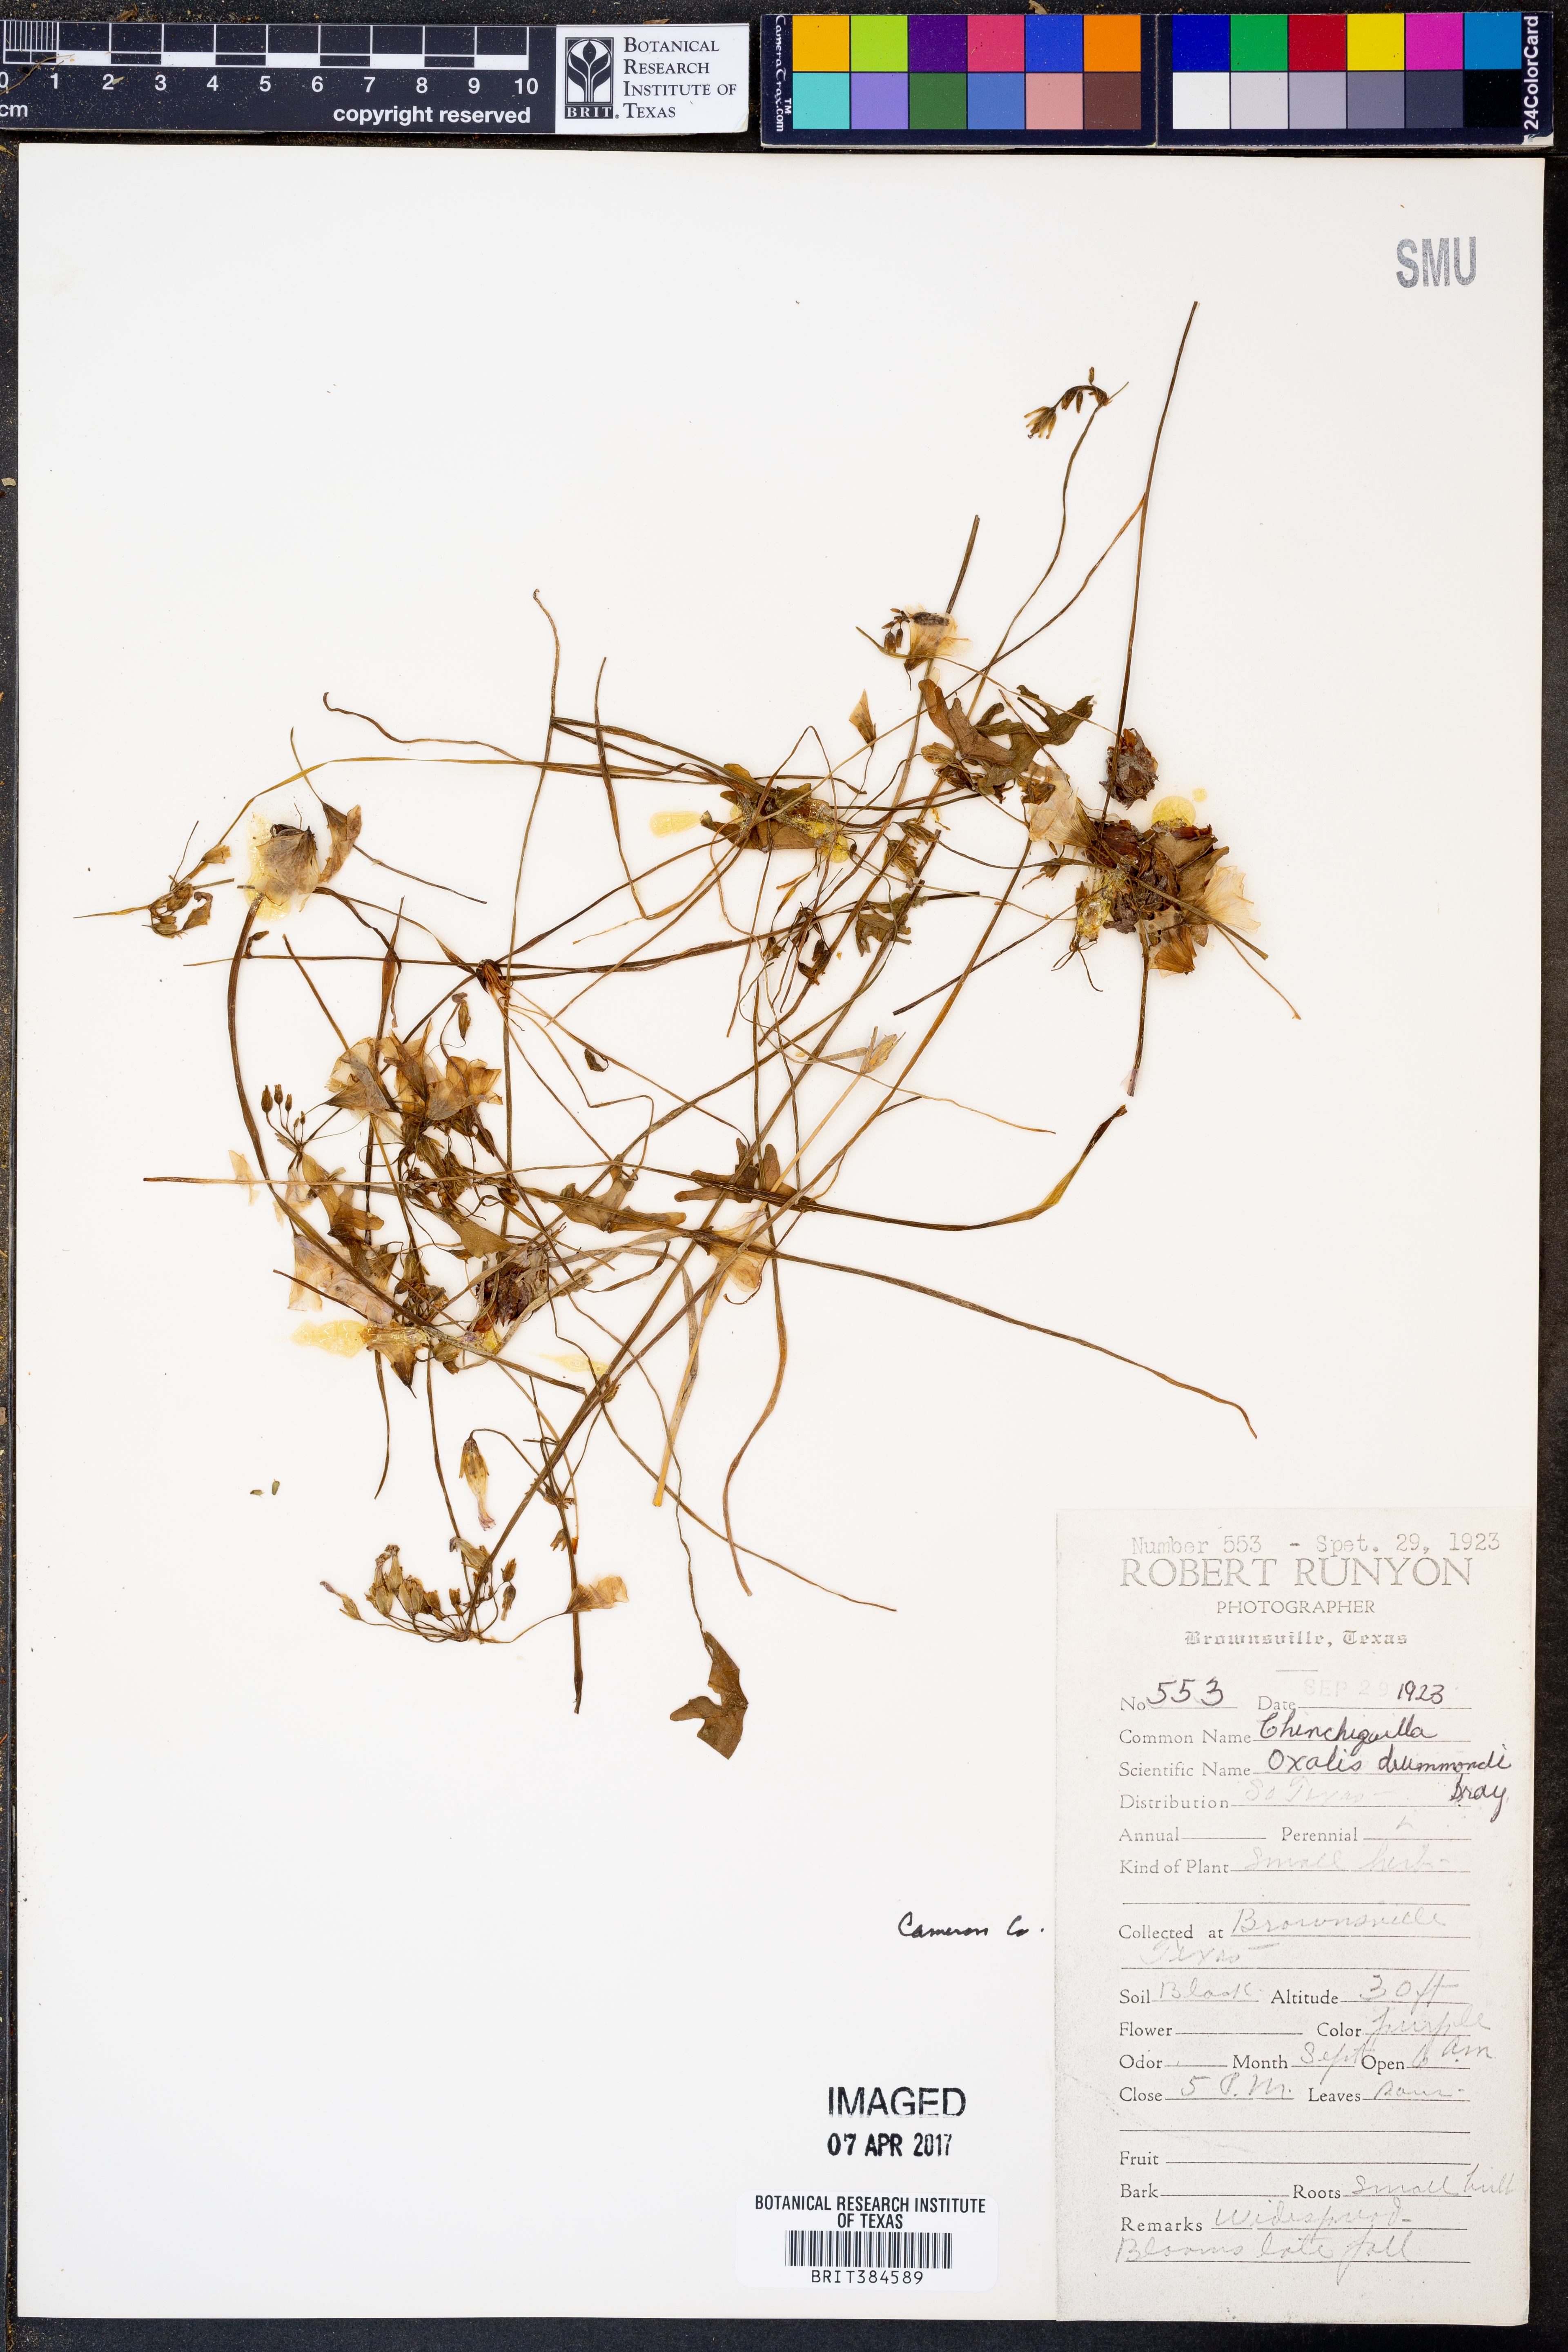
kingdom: Plantae
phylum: Tracheophyta
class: Magnoliopsida
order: Oxalidales
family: Oxalidaceae
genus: Oxalis
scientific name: Oxalis drummondii
